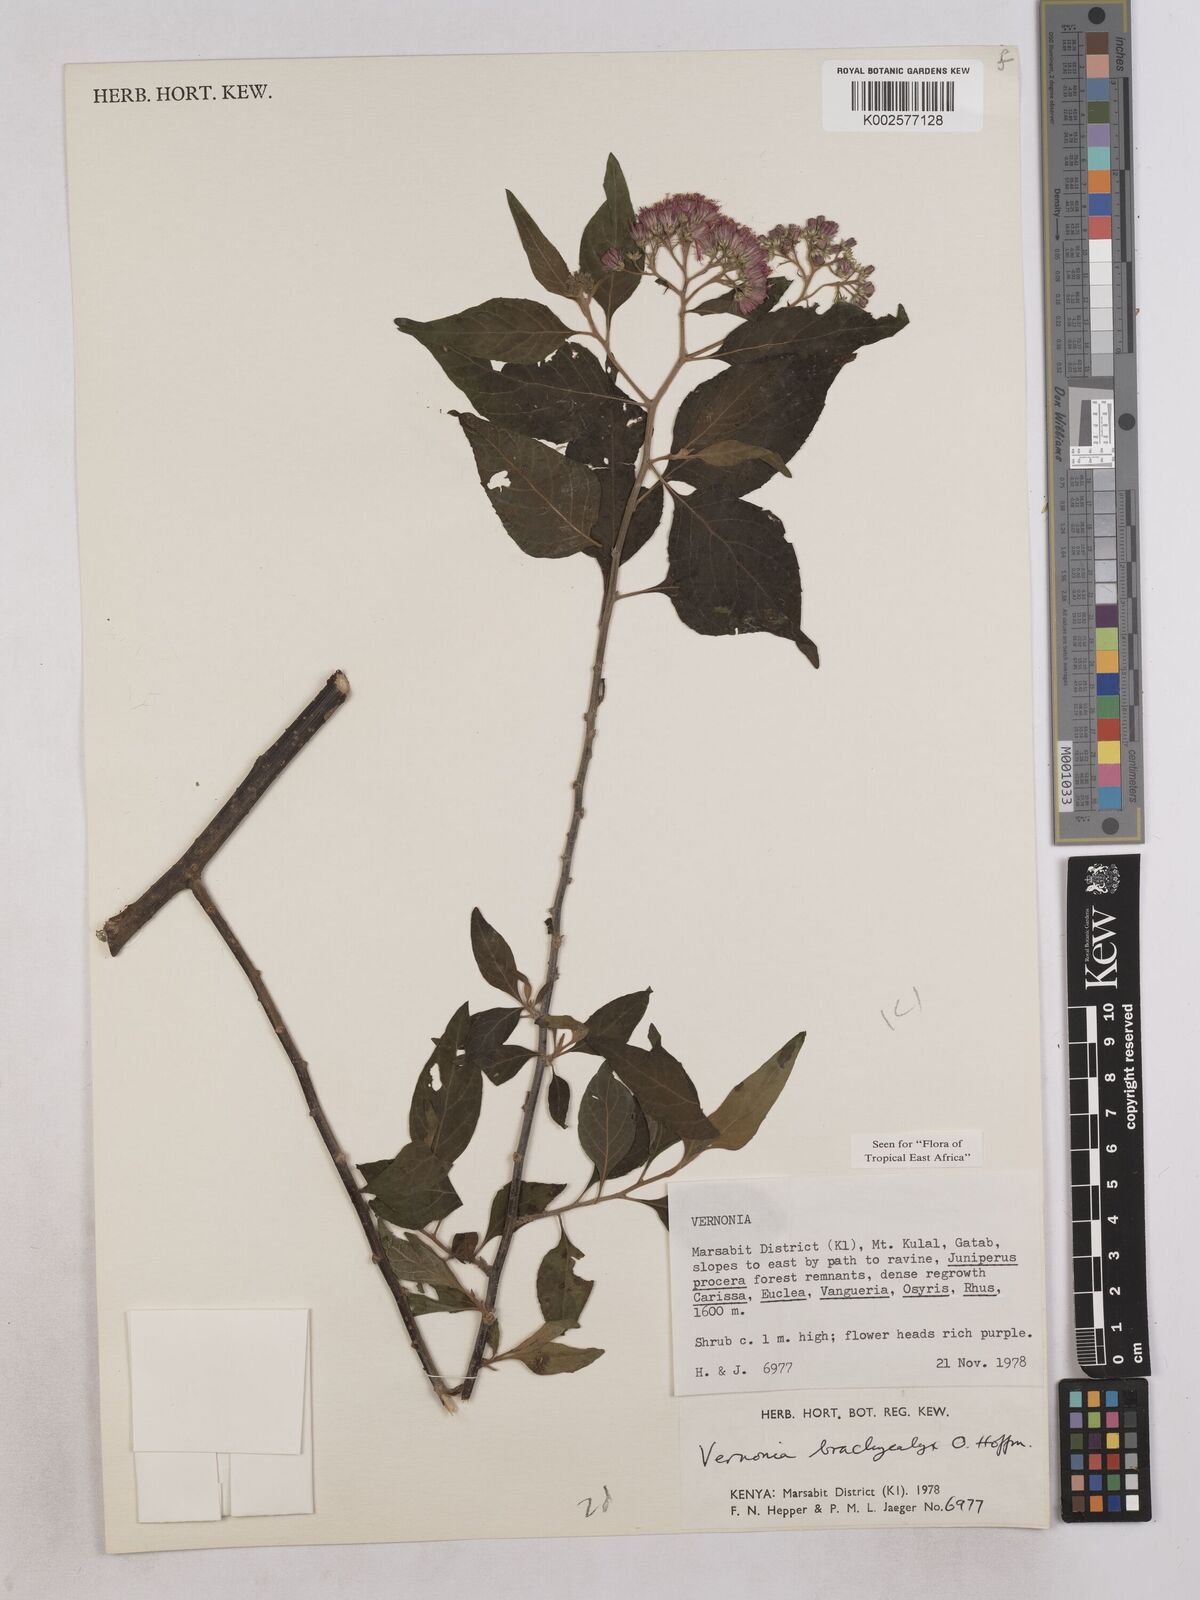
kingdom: Plantae
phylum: Tracheophyta
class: Magnoliopsida
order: Asterales
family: Asteraceae
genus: Hoffmannanthus
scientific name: Hoffmannanthus abbotianus
